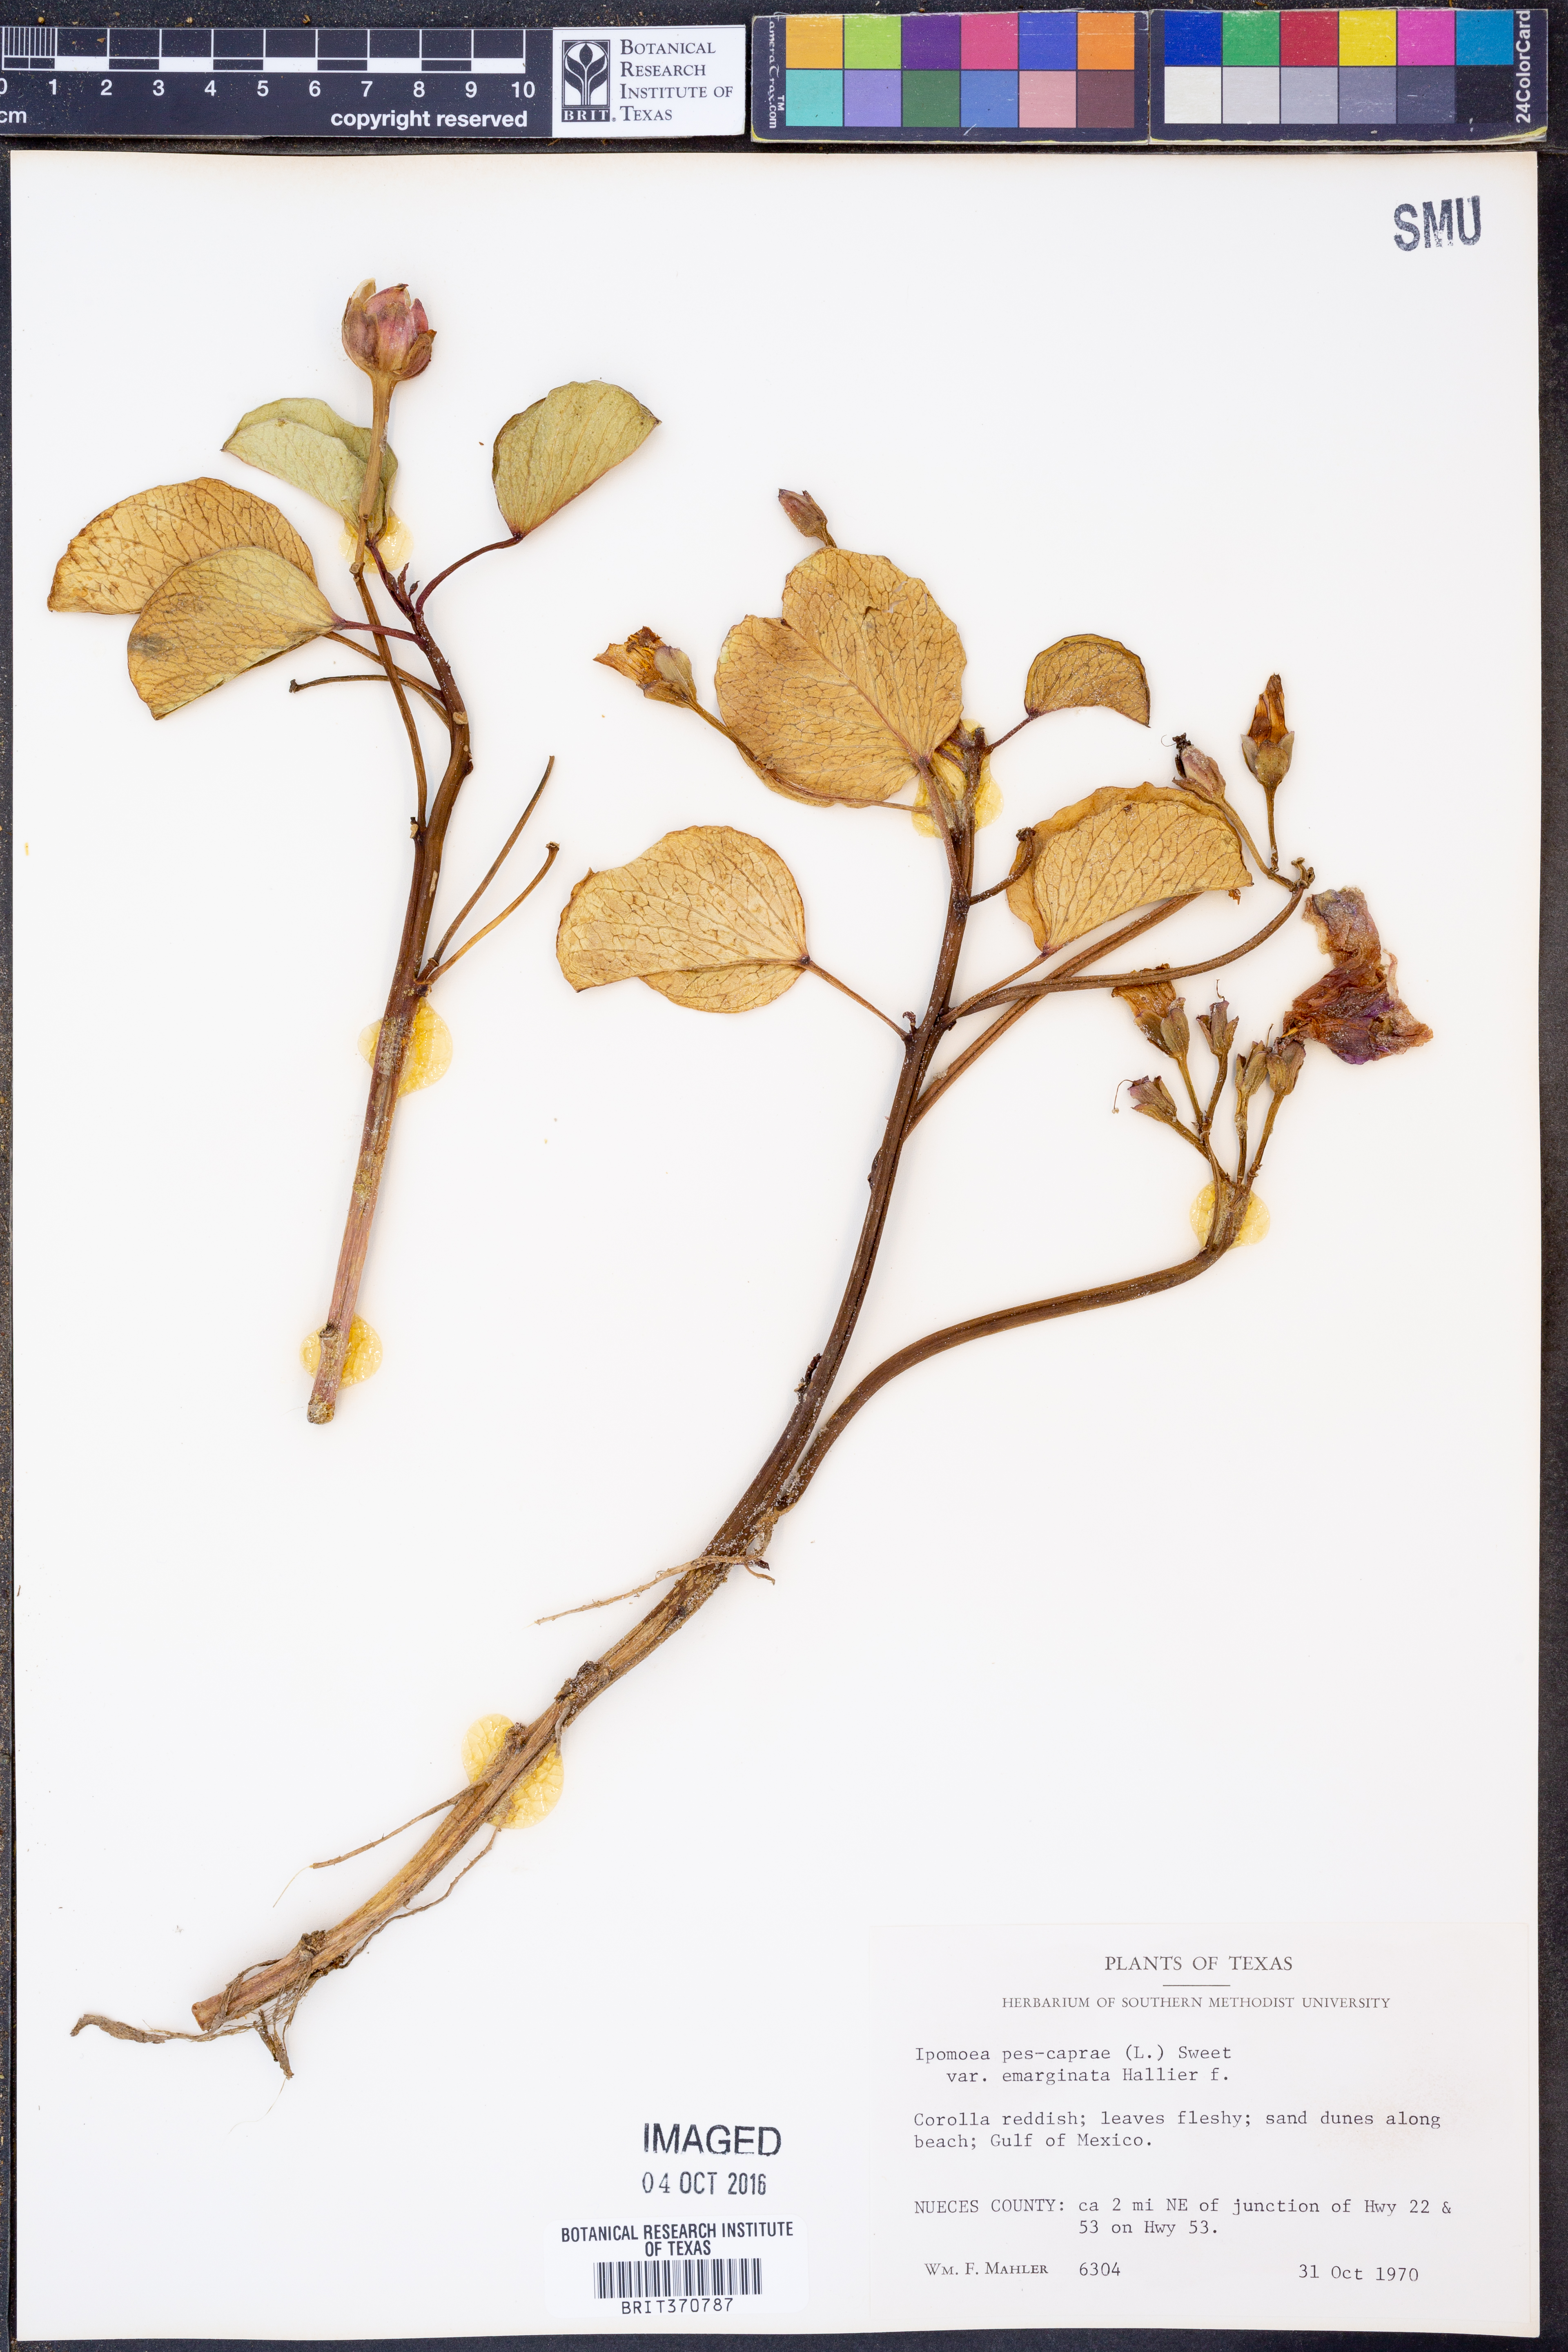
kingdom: Plantae
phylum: Tracheophyta
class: Magnoliopsida
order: Solanales
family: Convolvulaceae
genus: Ipomoea
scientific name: Ipomoea pes-caprae
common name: Beach morning glory
